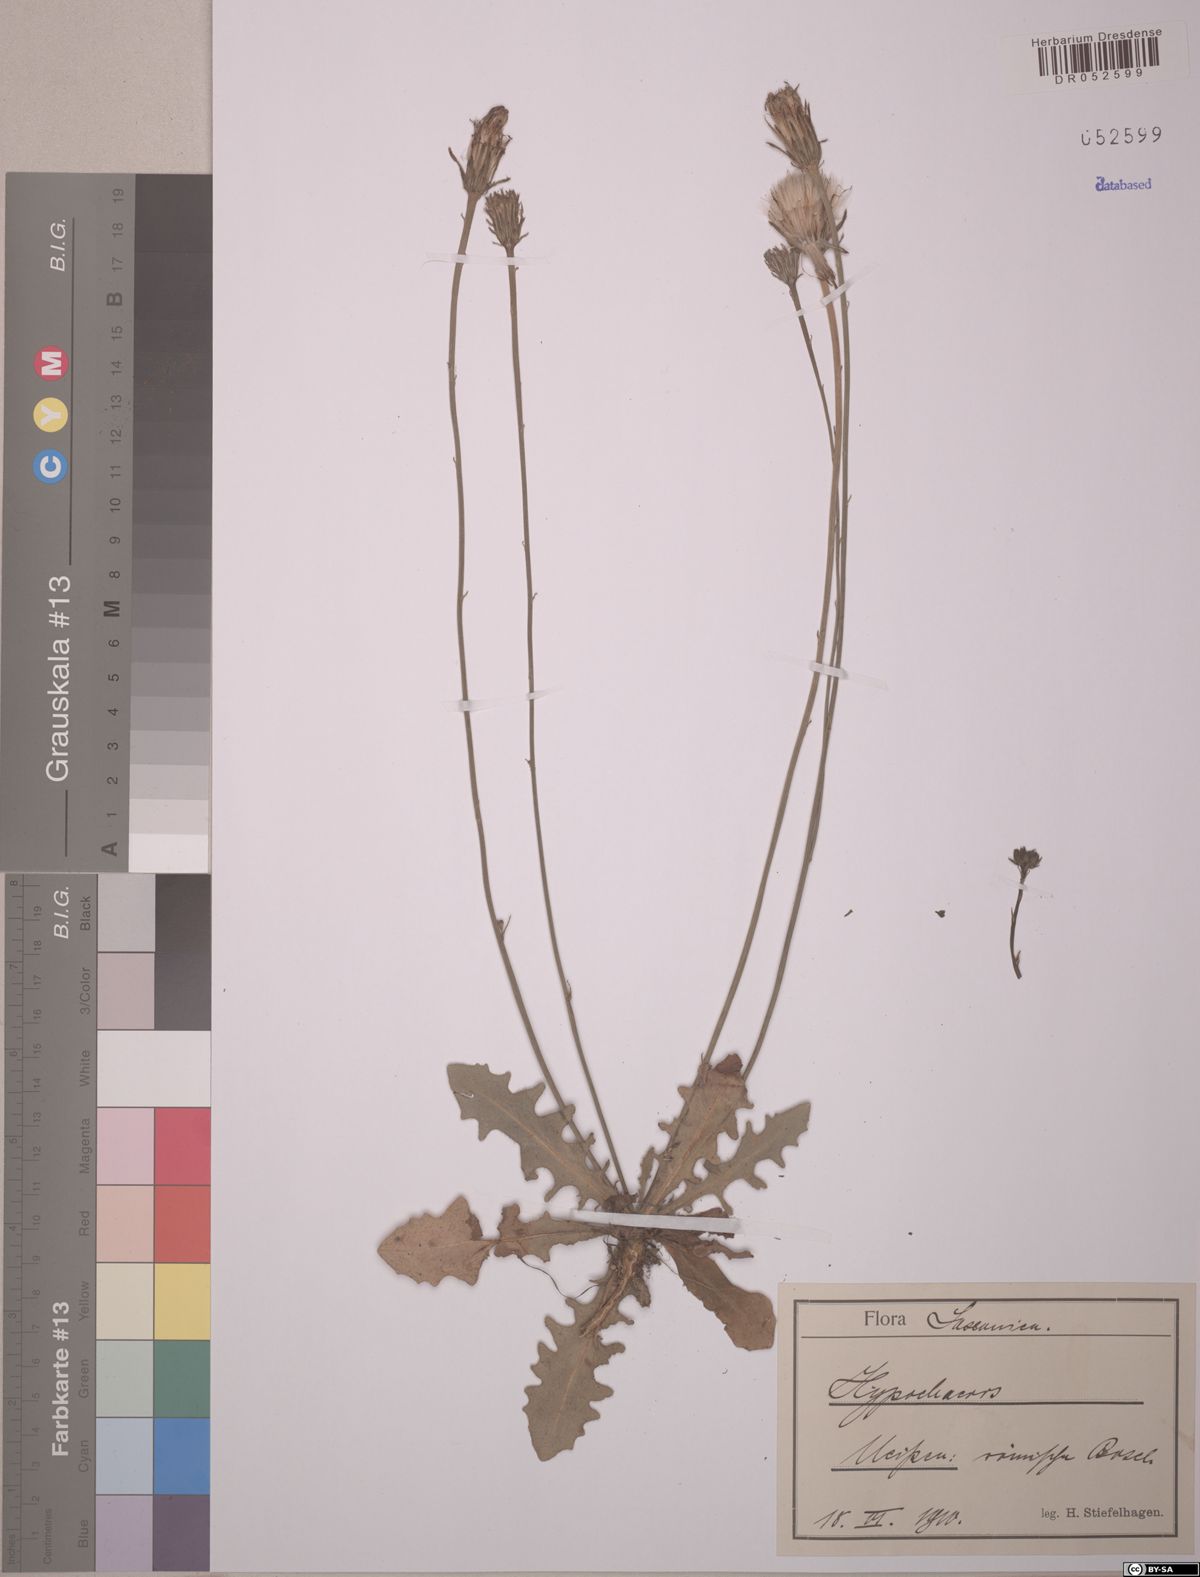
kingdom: Plantae
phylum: Tracheophyta
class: Magnoliopsida
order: Asterales
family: Asteraceae
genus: Hypochaeris
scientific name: Hypochaeris
